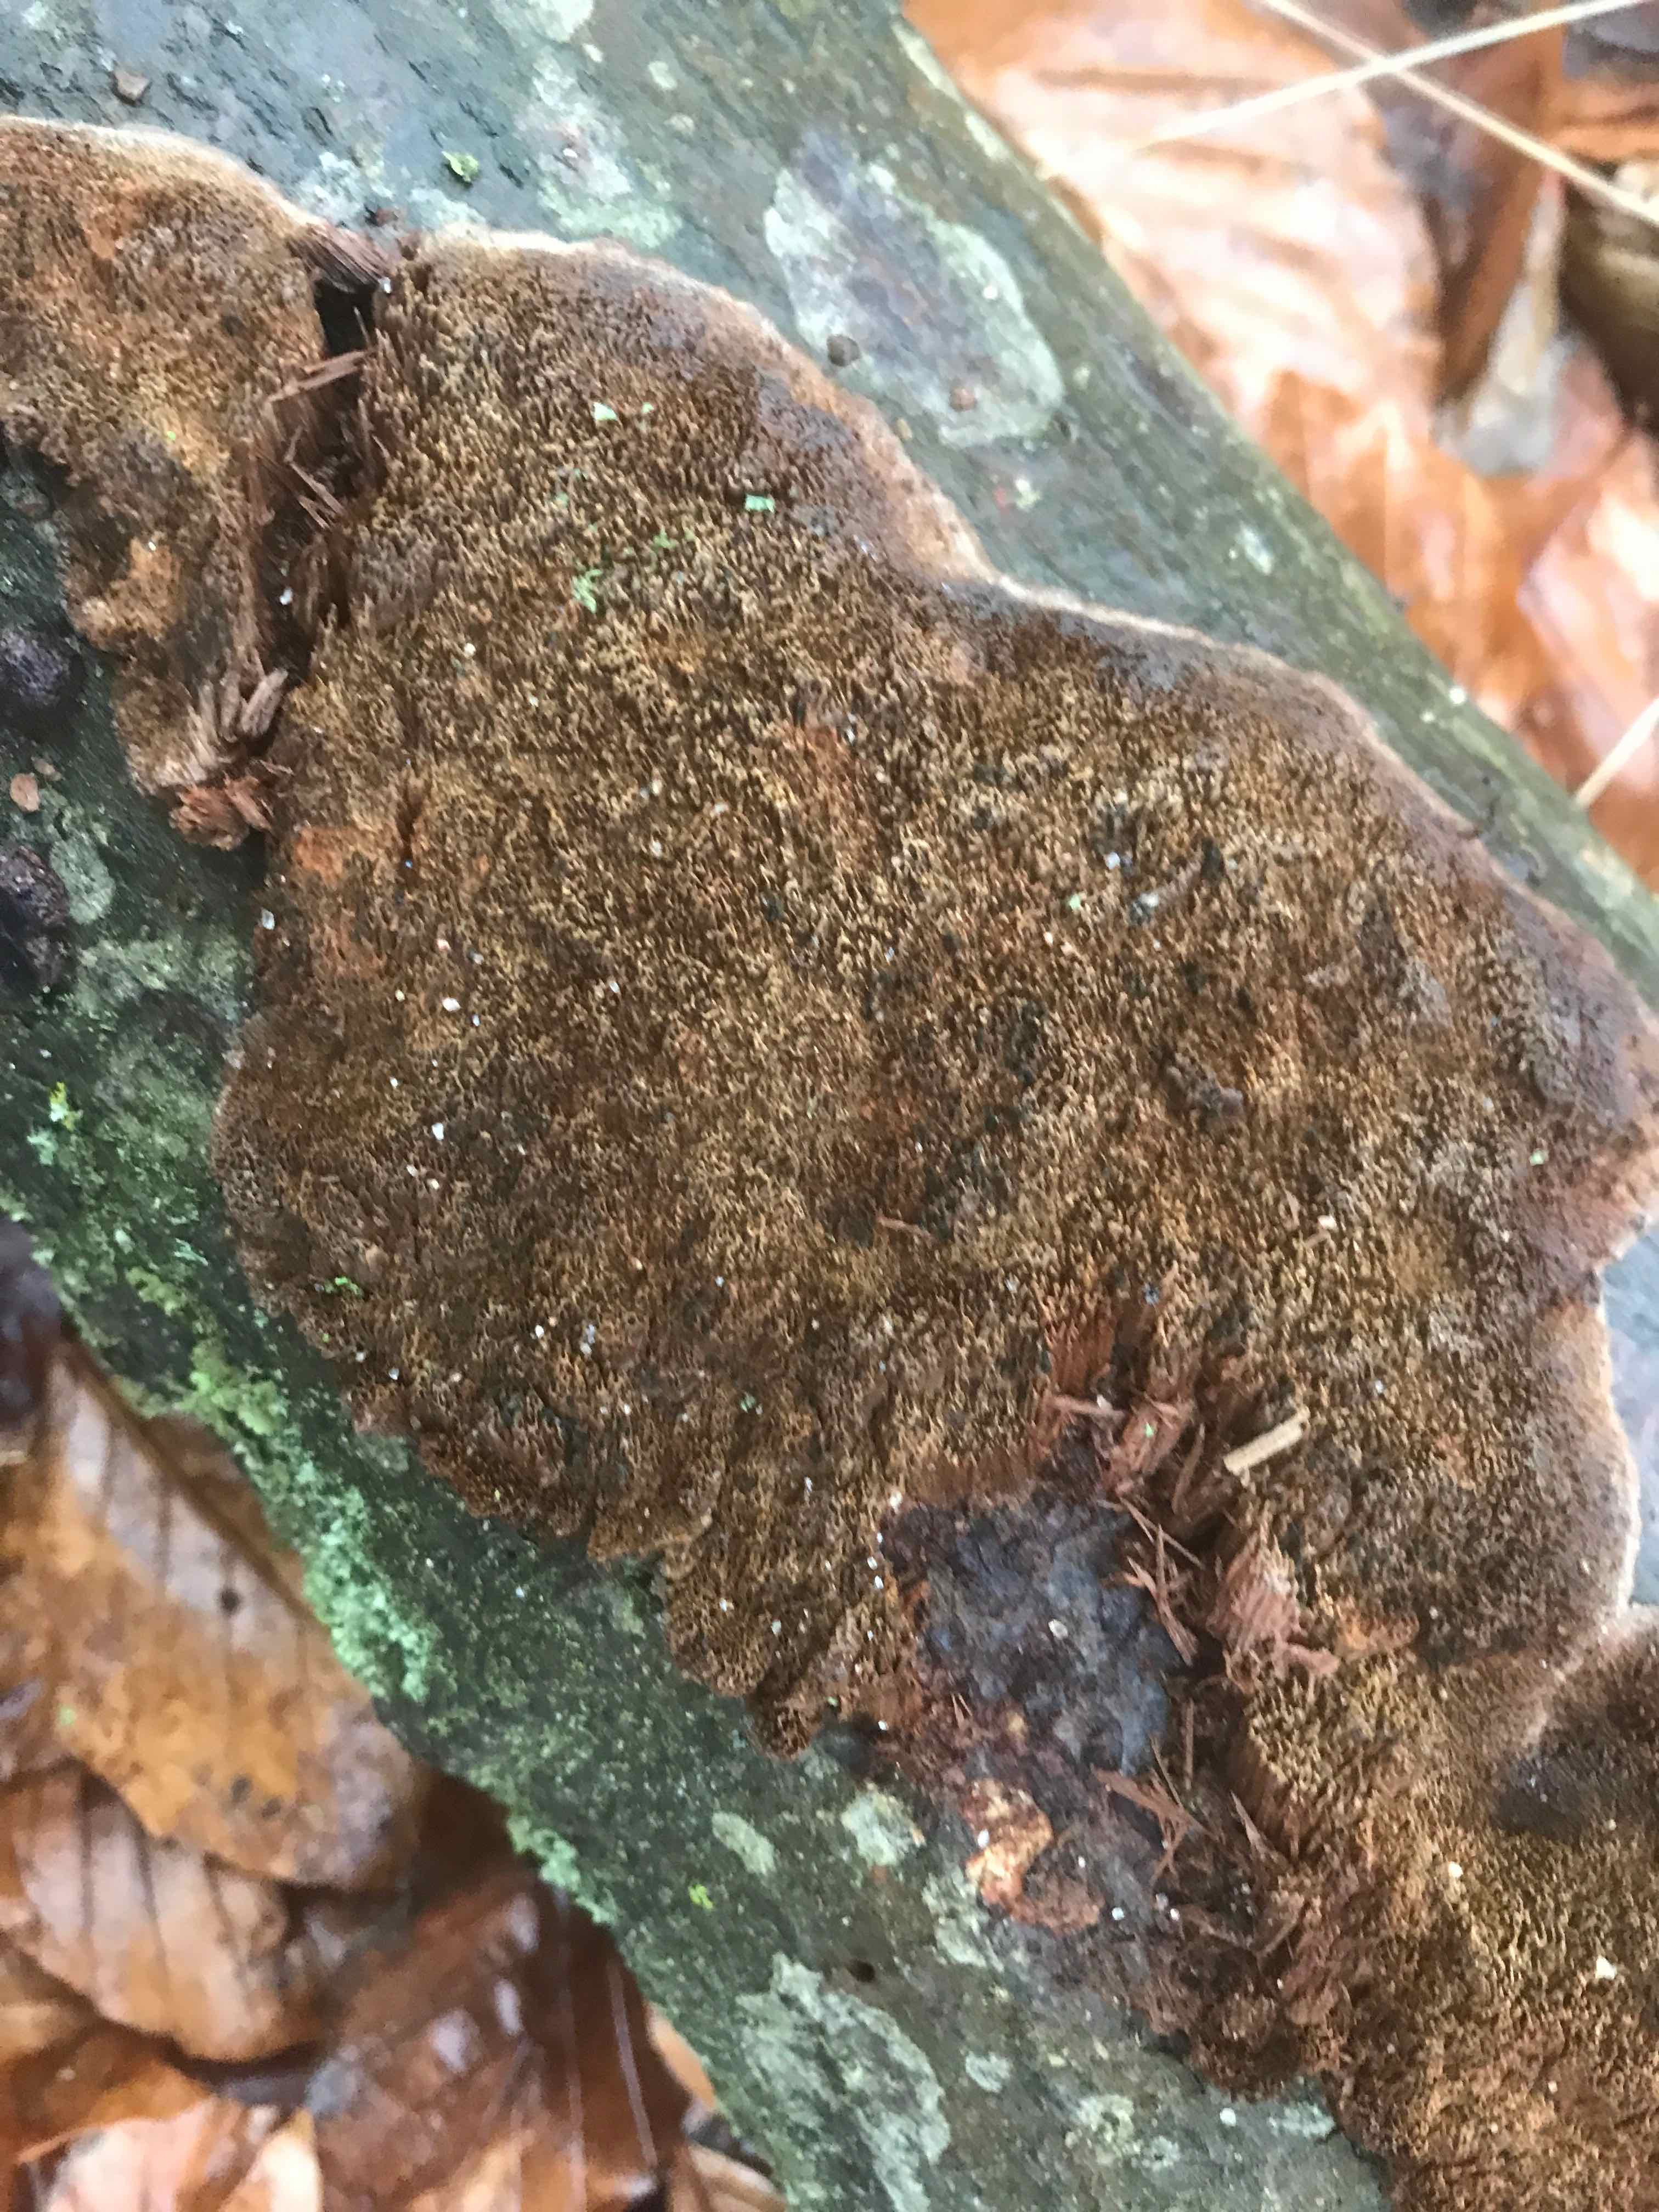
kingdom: Fungi
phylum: Basidiomycota
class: Agaricomycetes
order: Hymenochaetales
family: Hymenochaetaceae
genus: Mensularia
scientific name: Mensularia nodulosa
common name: bøge-spejlporesvamp
